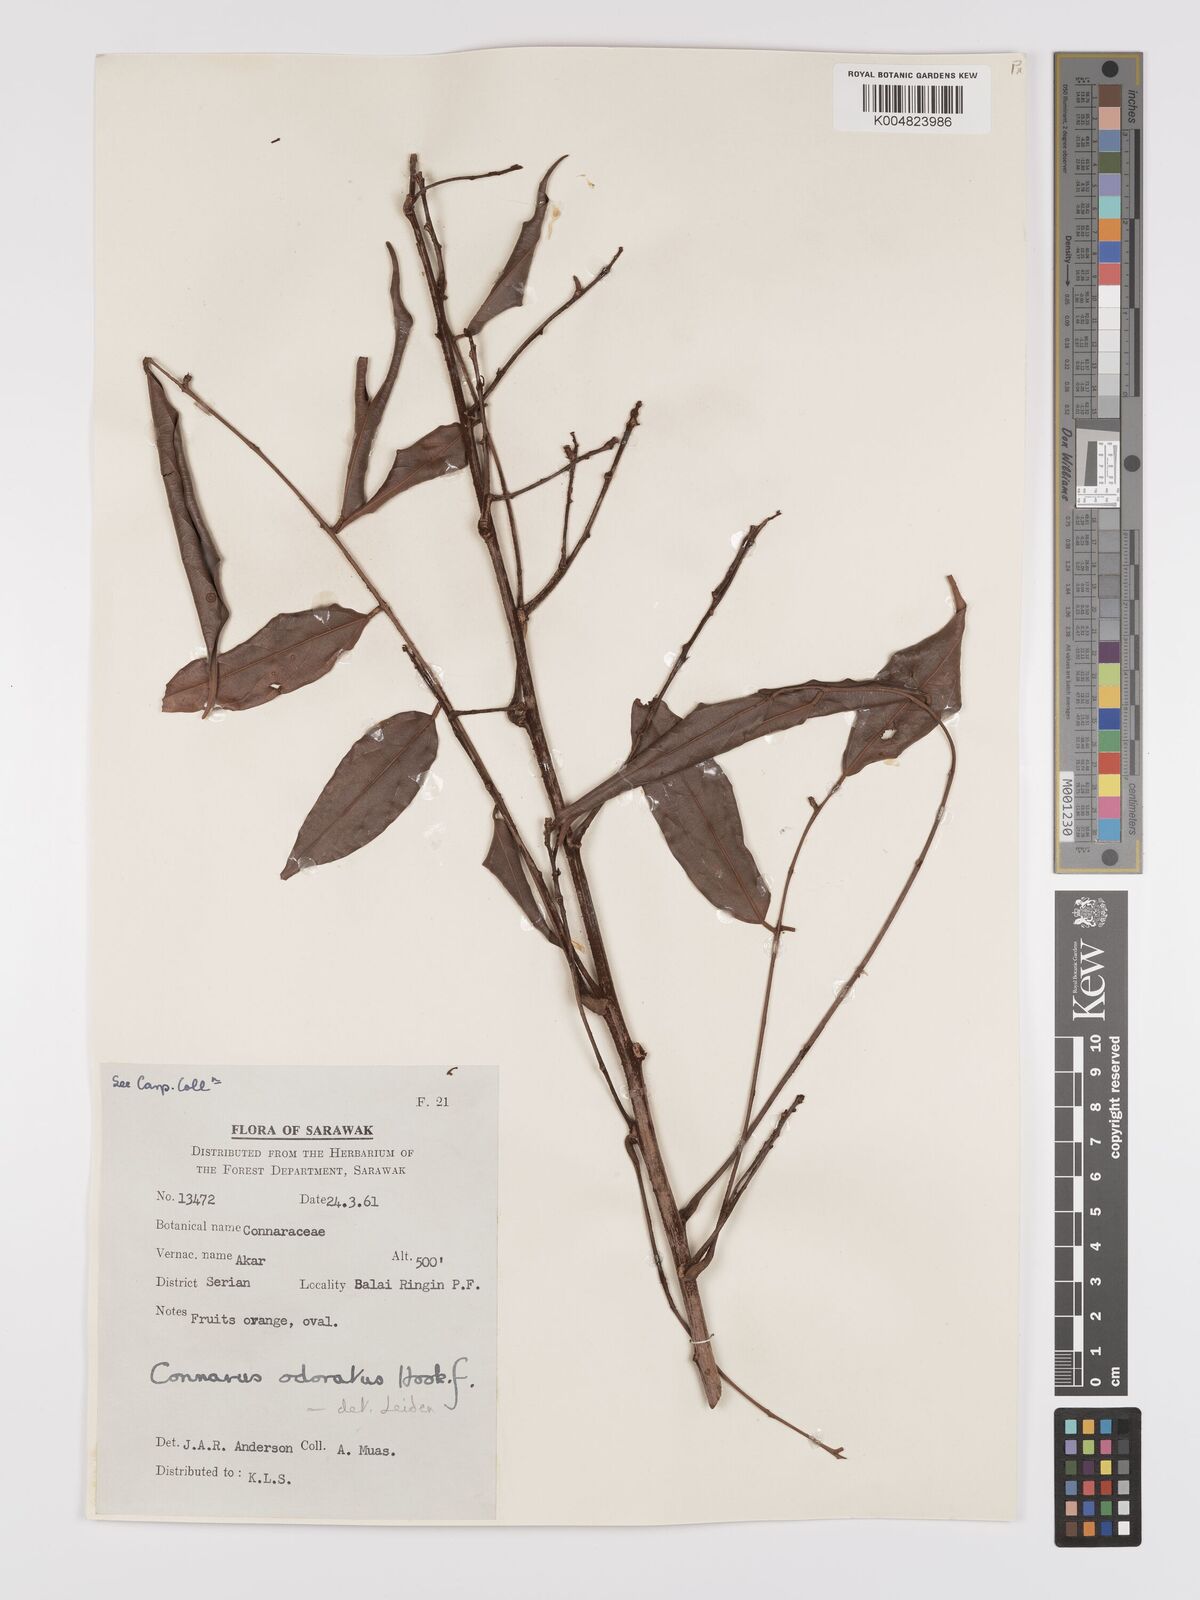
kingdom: Plantae
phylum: Tracheophyta
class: Magnoliopsida
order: Oxalidales
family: Connaraceae
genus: Connarus
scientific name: Connarus odoratus
